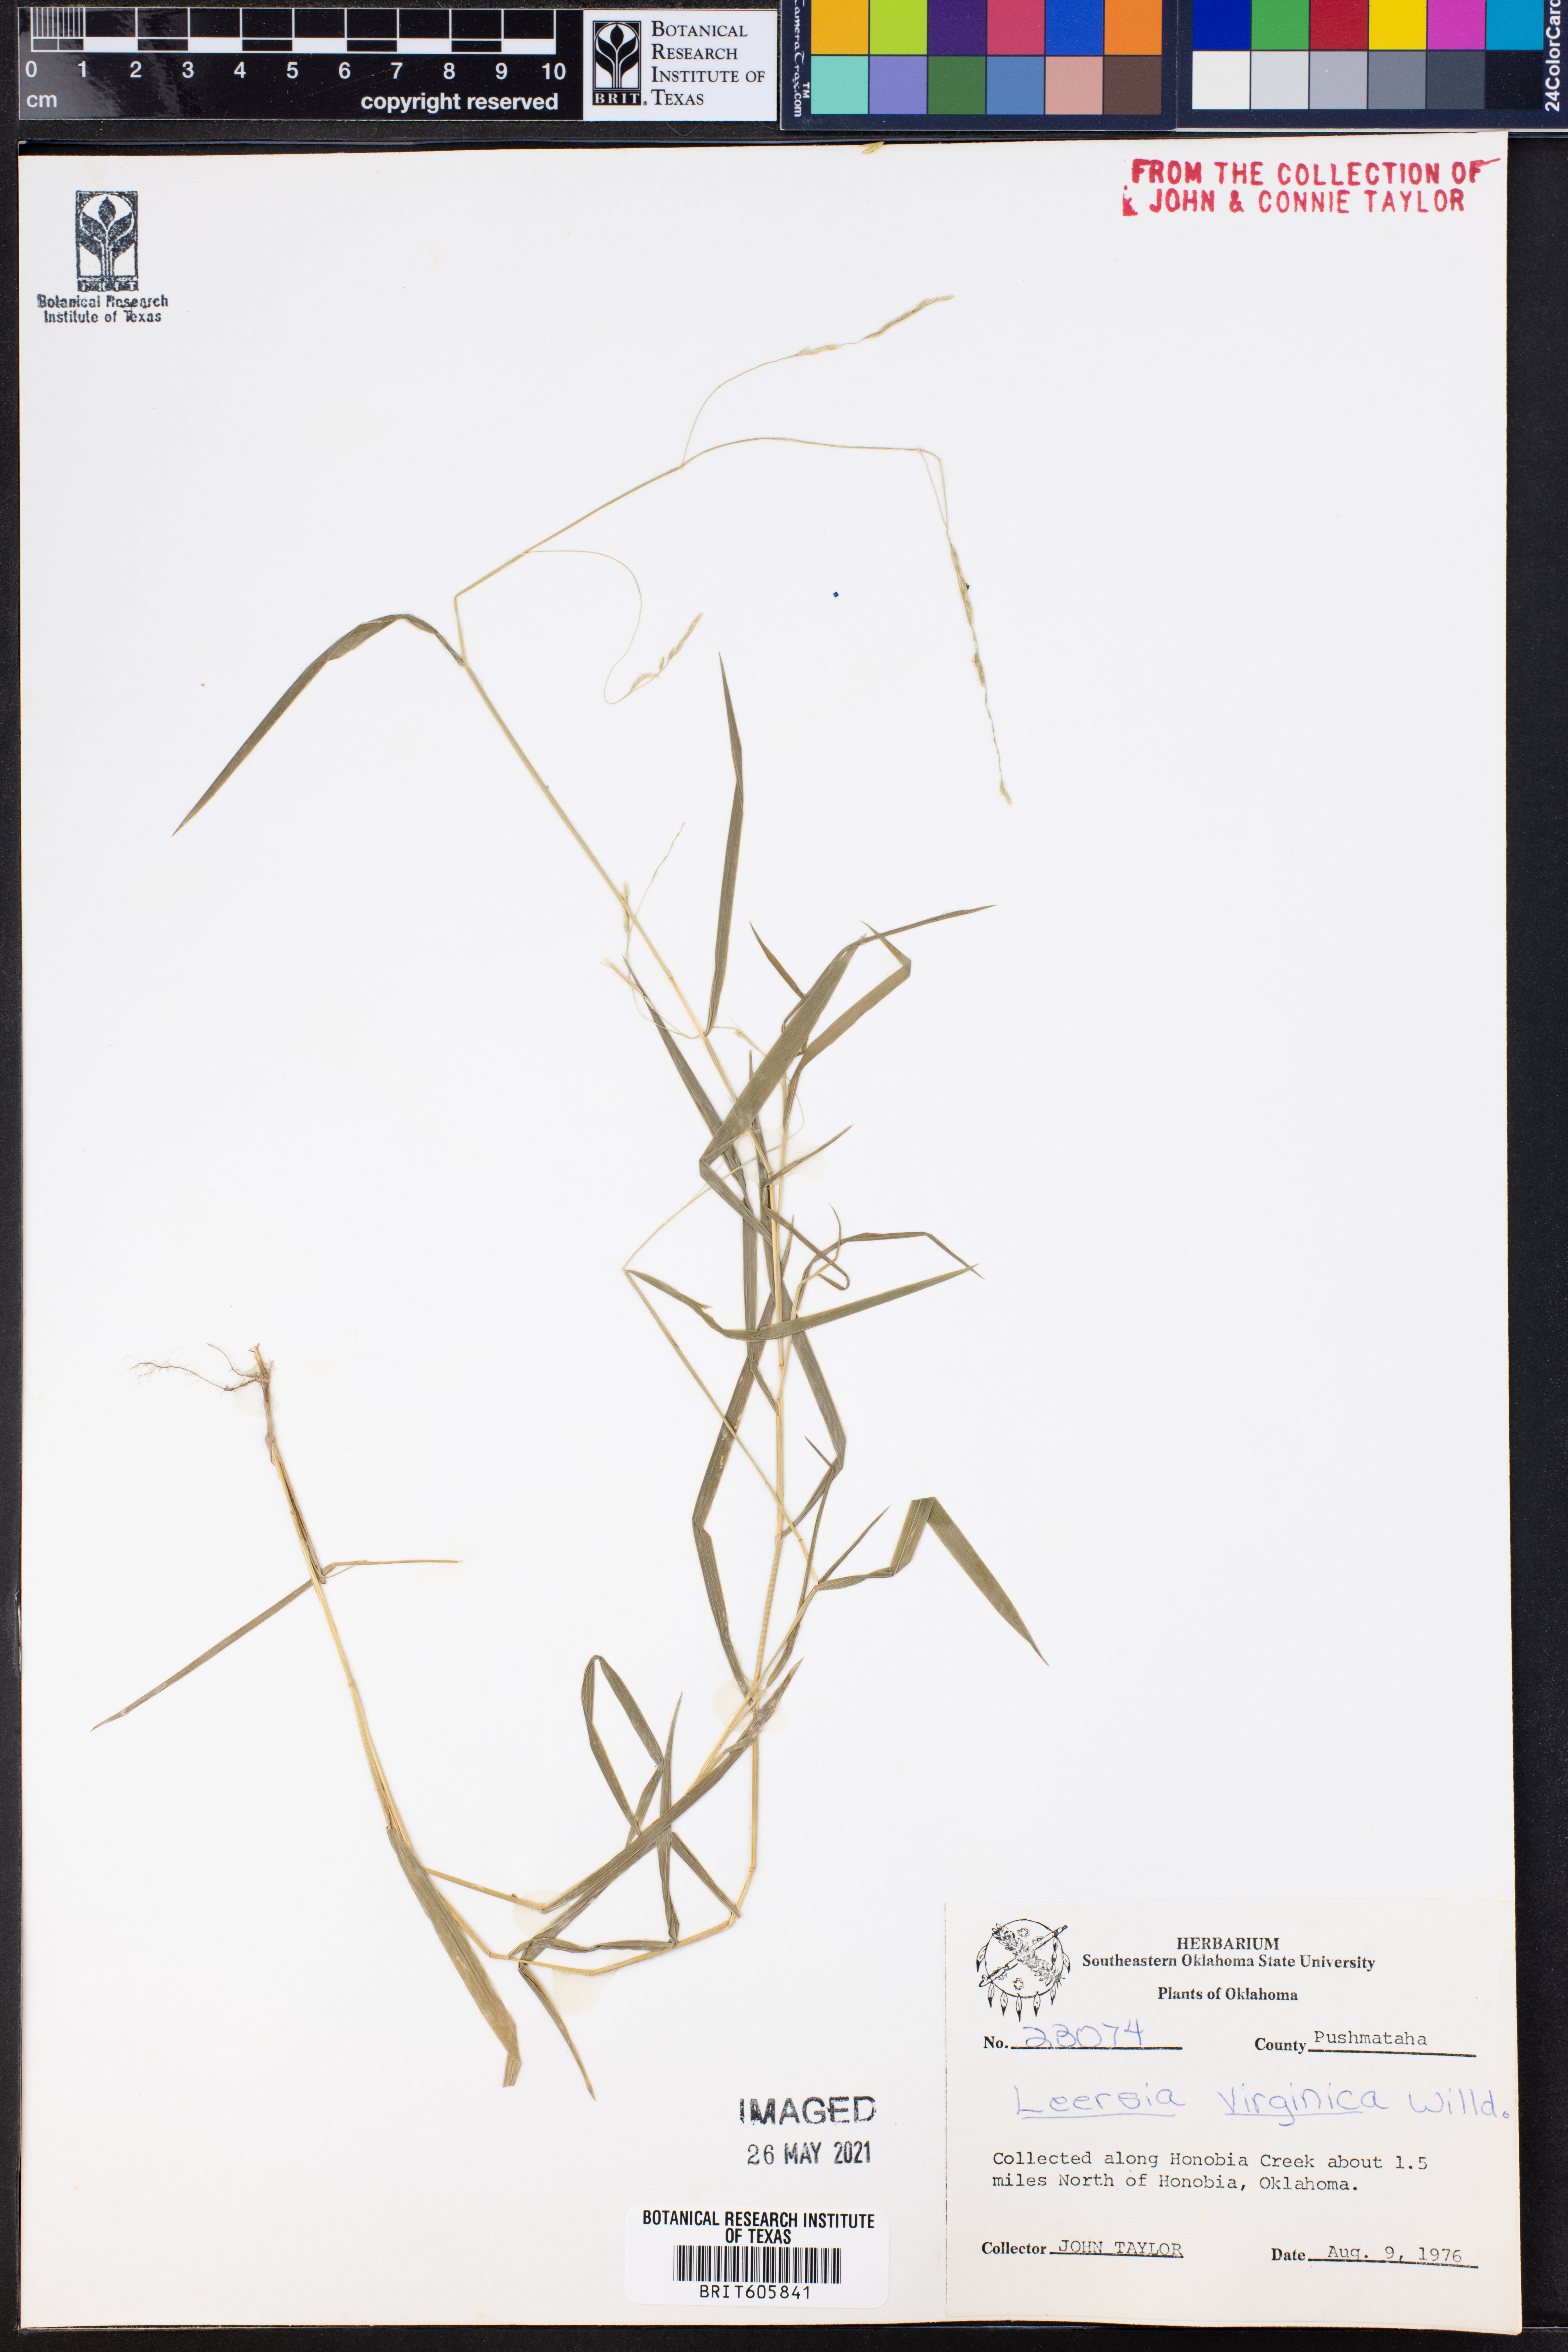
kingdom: Plantae
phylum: Tracheophyta
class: Liliopsida
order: Poales
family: Poaceae
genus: Leersia
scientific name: Leersia virginica
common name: White cutgrass
